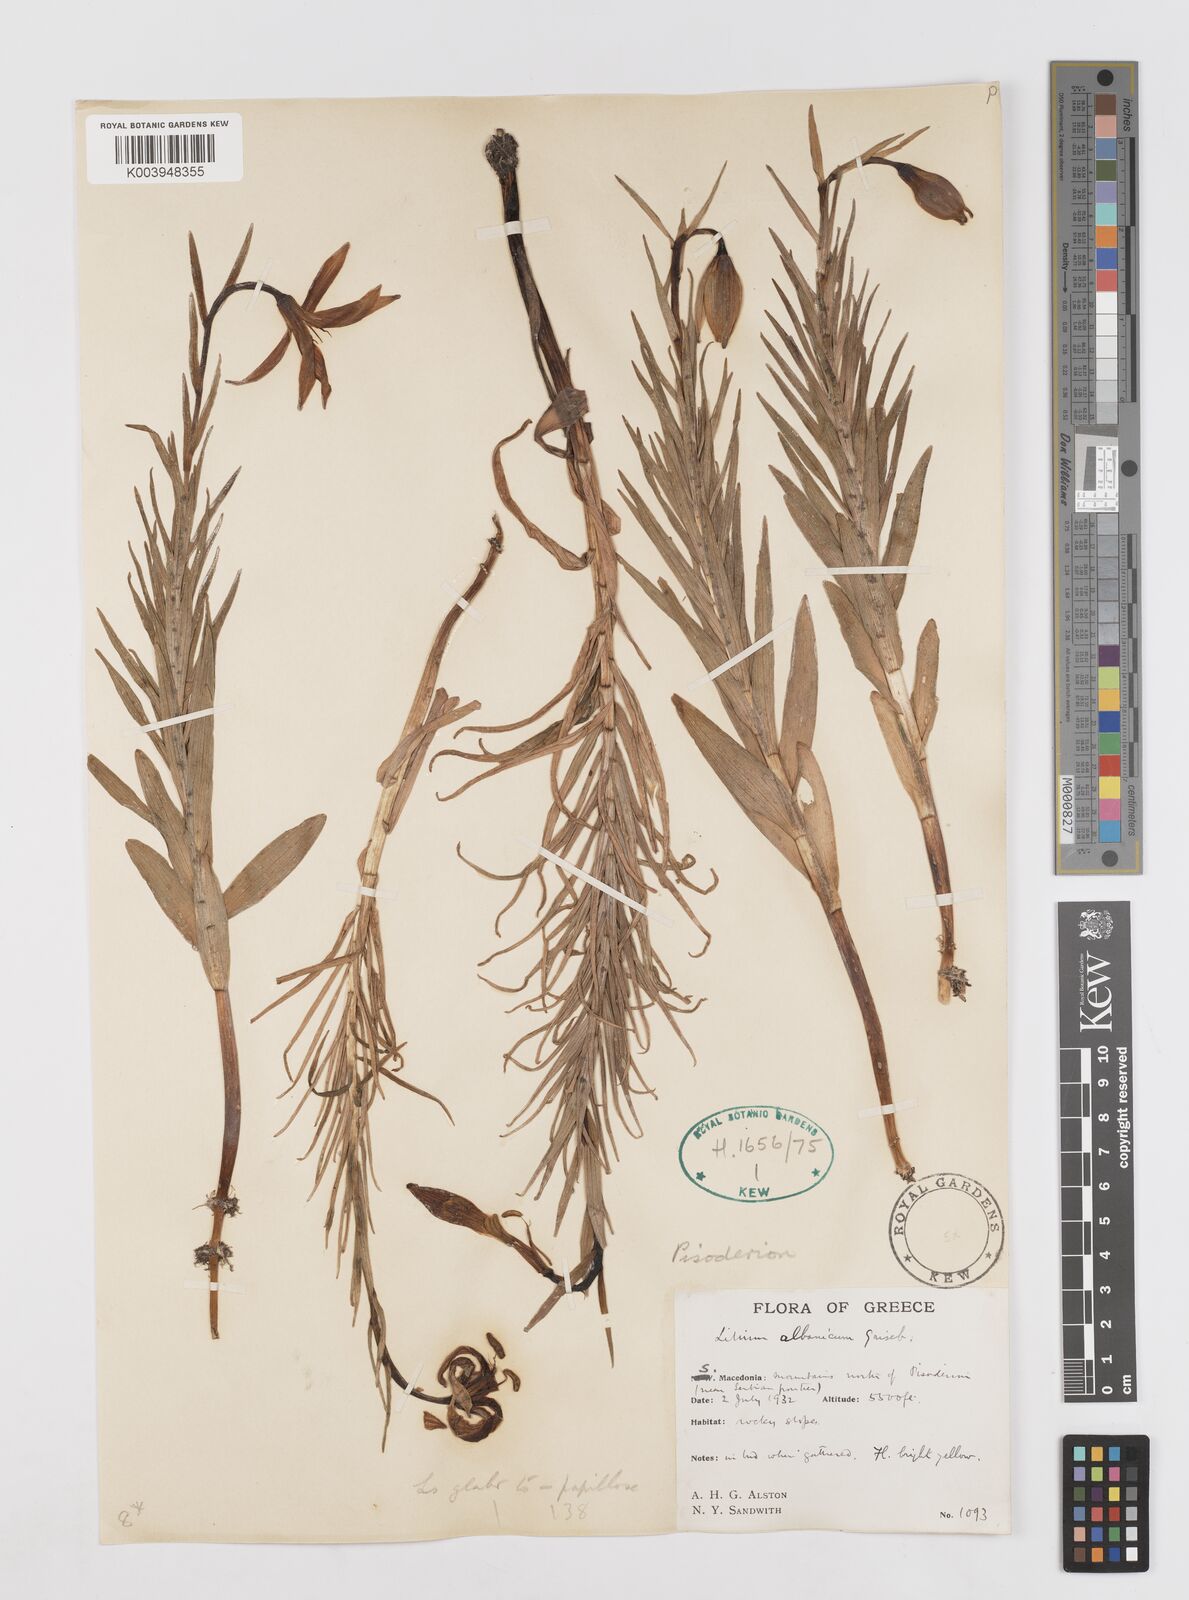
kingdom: Plantae
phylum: Tracheophyta
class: Liliopsida
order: Liliales
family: Liliaceae
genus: Lilium
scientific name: Lilium albanicum
